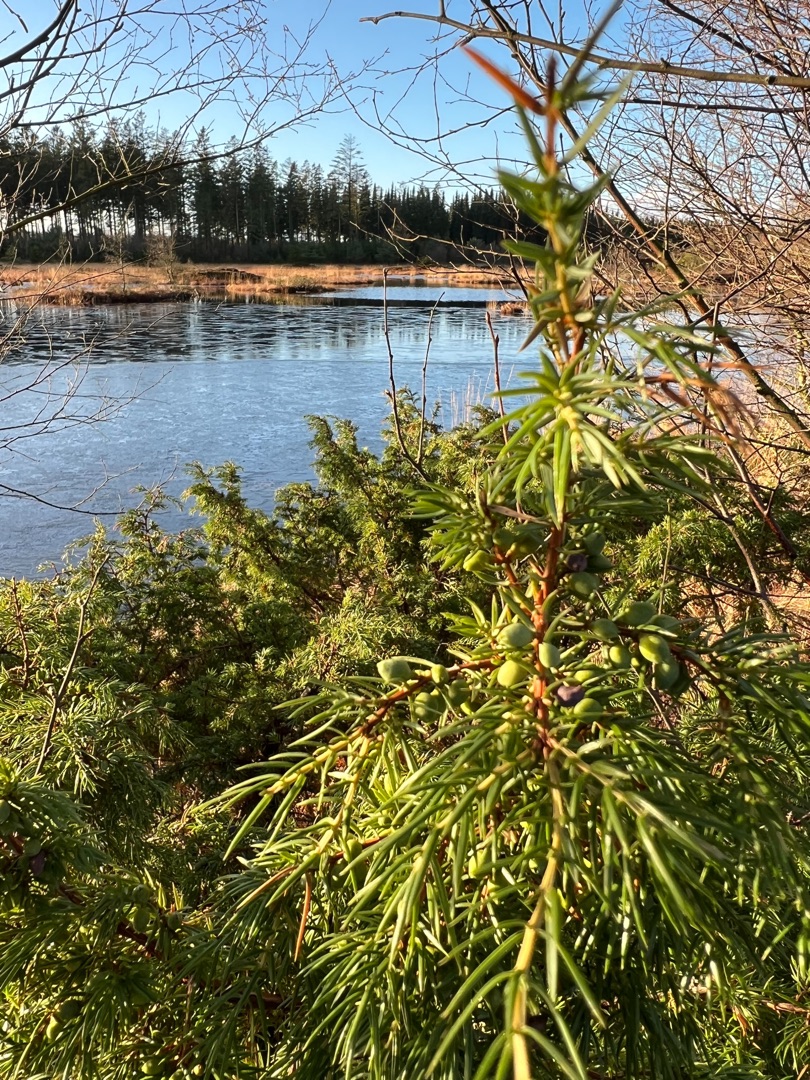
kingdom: Plantae
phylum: Tracheophyta
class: Pinopsida
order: Pinales
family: Cupressaceae
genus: Juniperus
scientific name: Juniperus communis
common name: Almindelig ene
